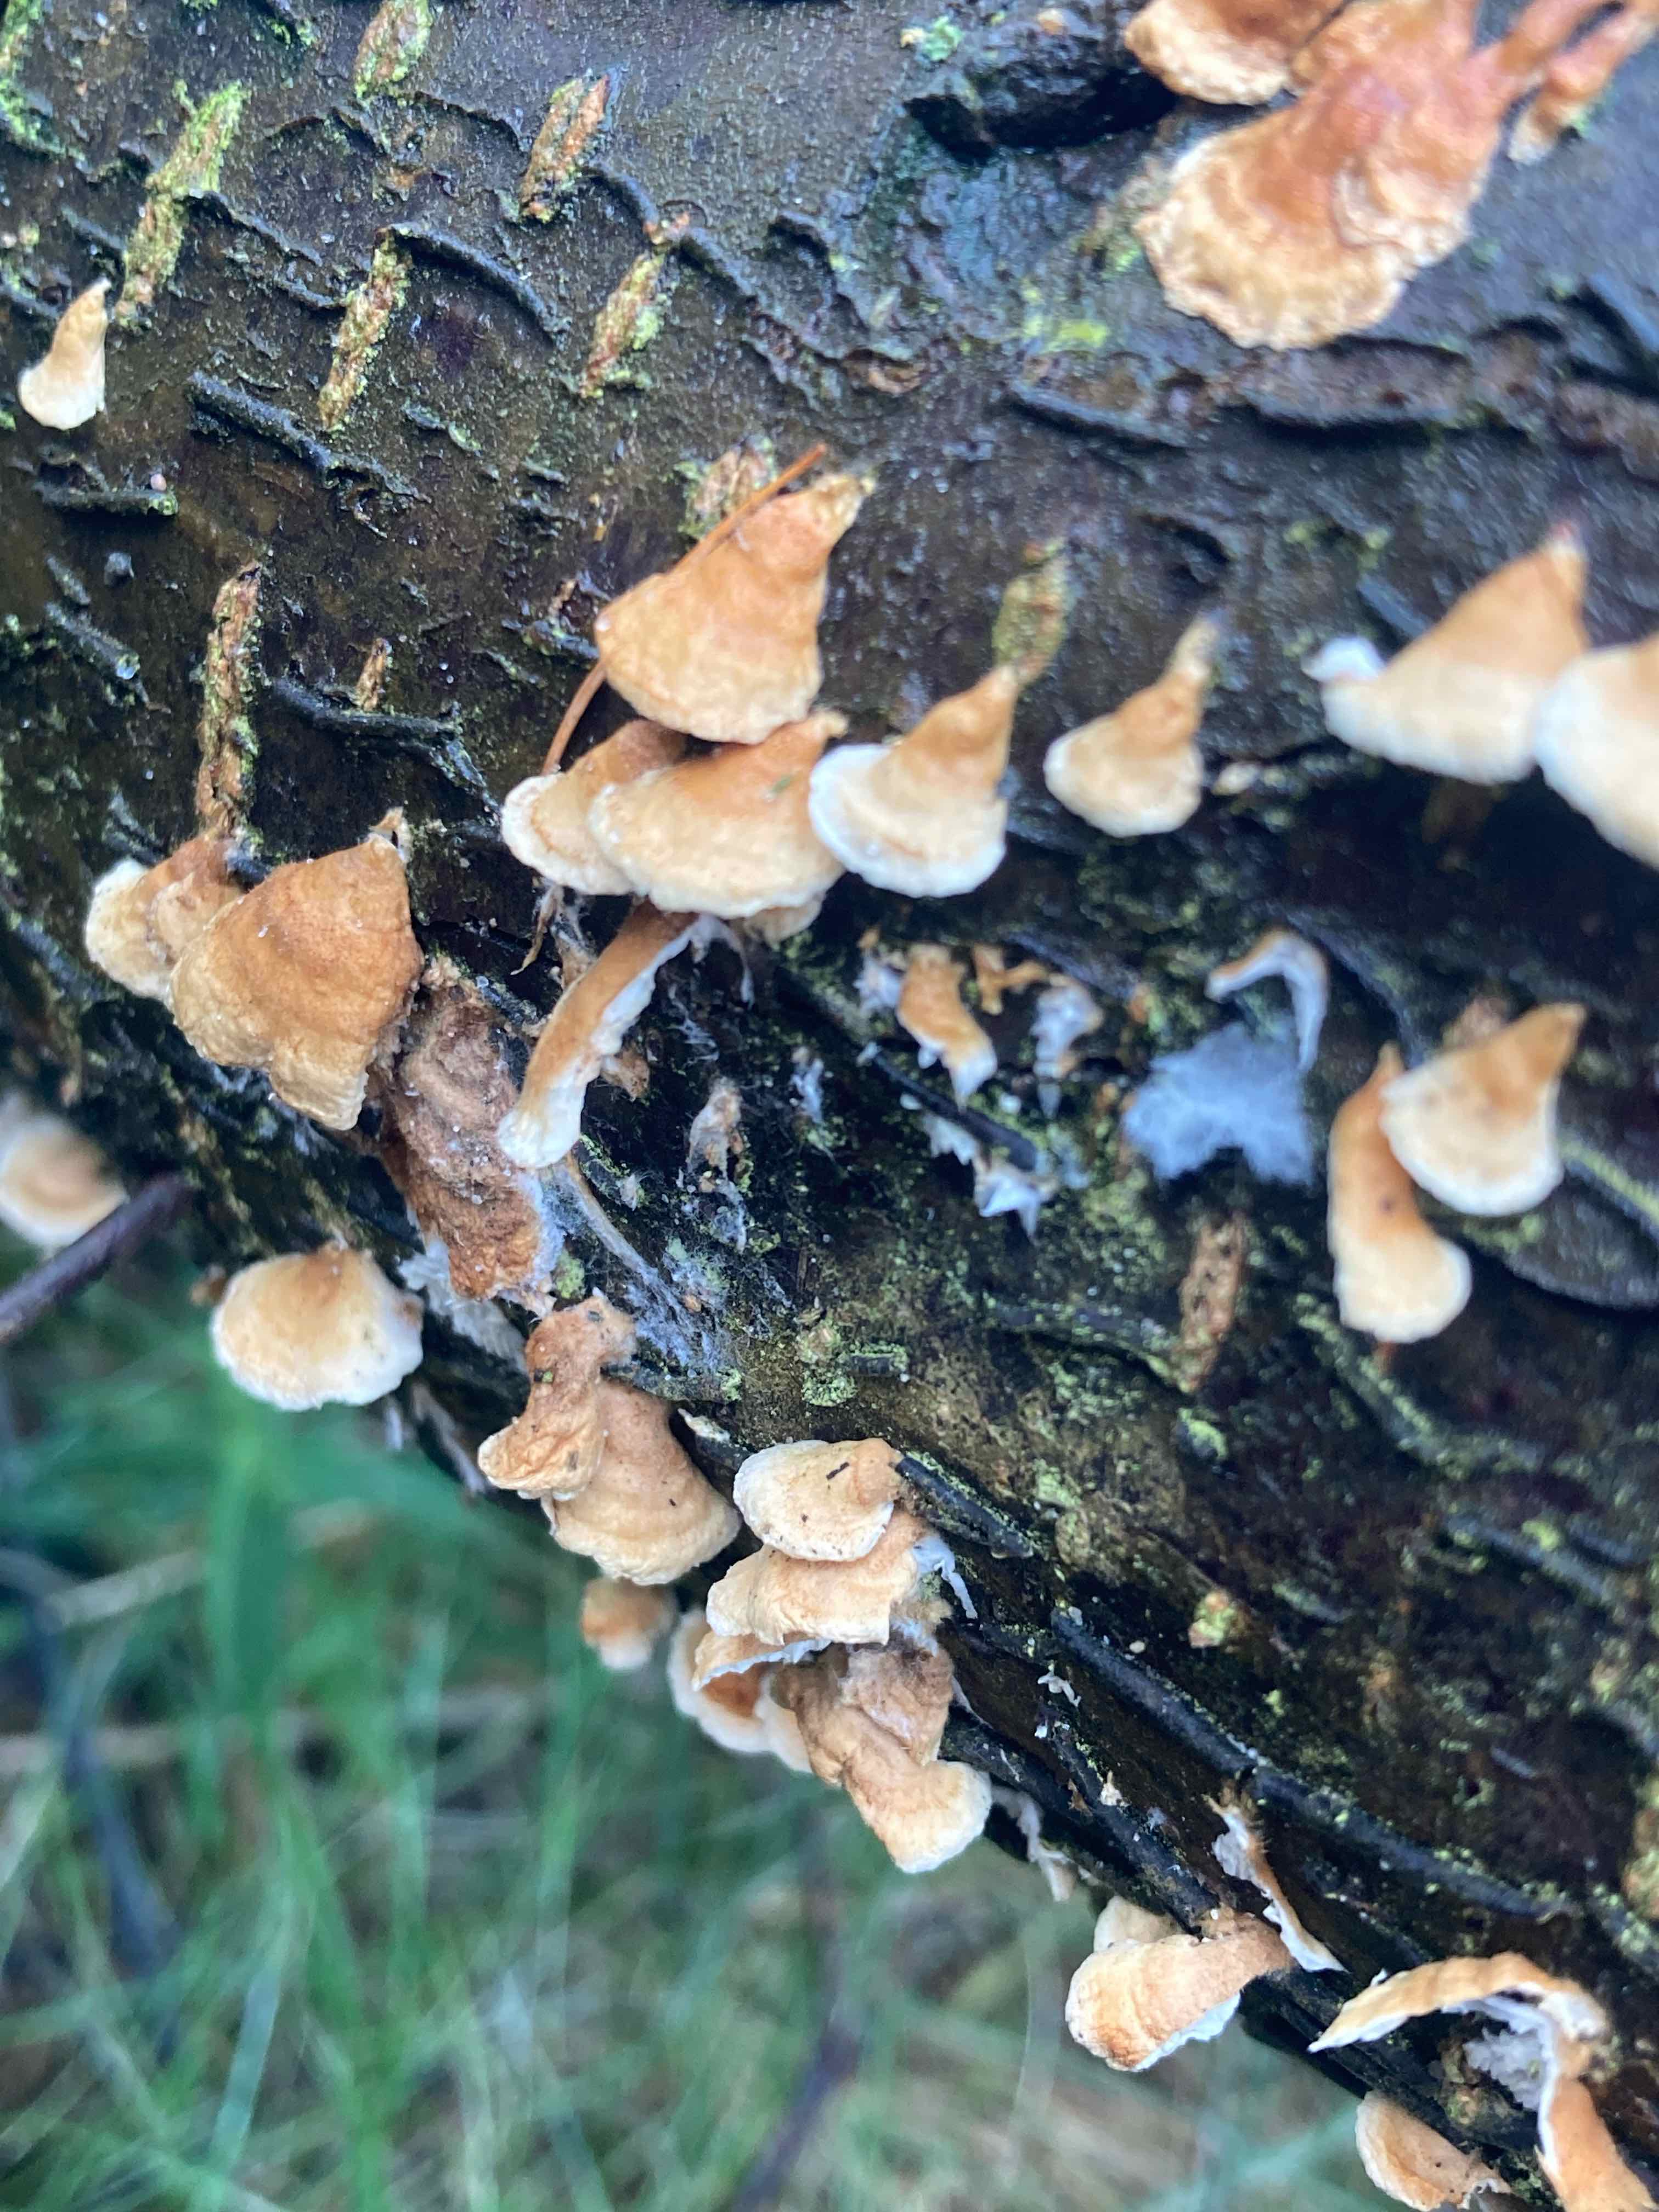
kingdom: Fungi
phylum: Basidiomycota
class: Agaricomycetes
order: Amylocorticiales
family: Amylocorticiaceae
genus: Plicaturopsis
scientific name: Plicaturopsis crispa
